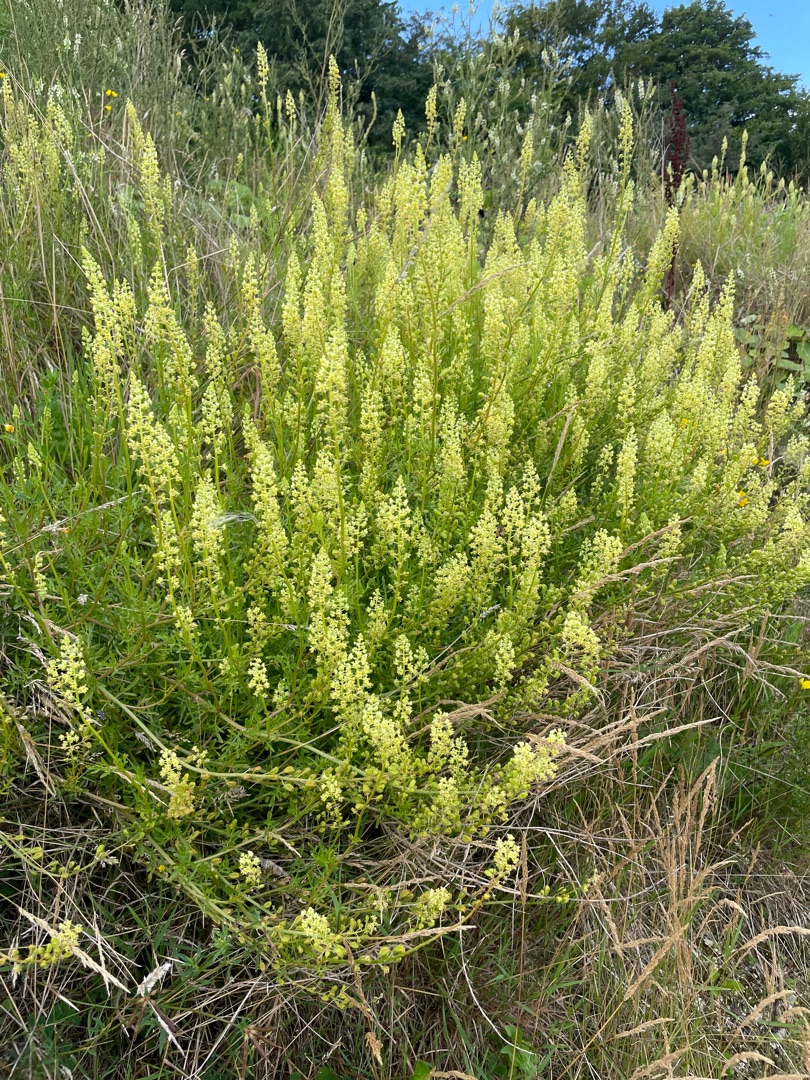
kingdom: Plantae
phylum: Tracheophyta
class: Magnoliopsida
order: Brassicales
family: Resedaceae
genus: Reseda
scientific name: Reseda lutea
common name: Gul reseda
